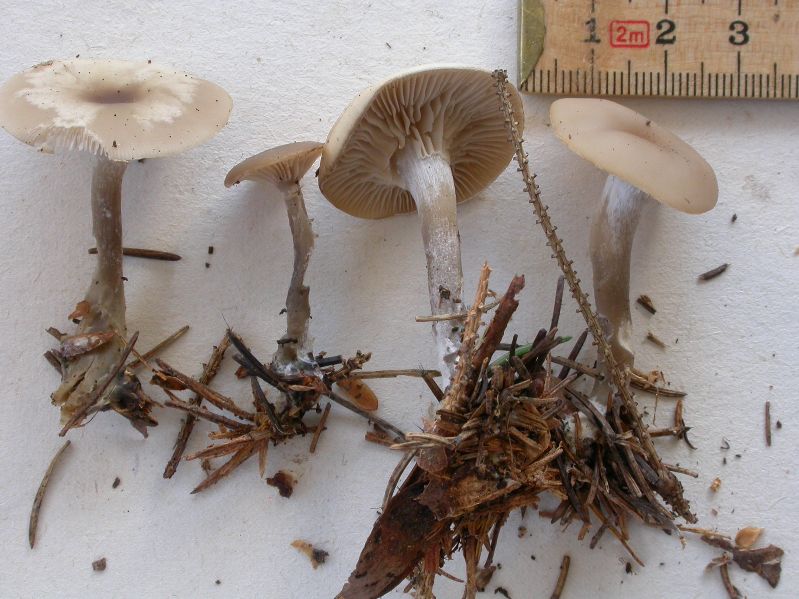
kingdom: Fungi
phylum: Basidiomycota
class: Agaricomycetes
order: Agaricales
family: Tricholomataceae
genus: Clitocybe
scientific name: Clitocybe metachroa
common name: grå tragthat
